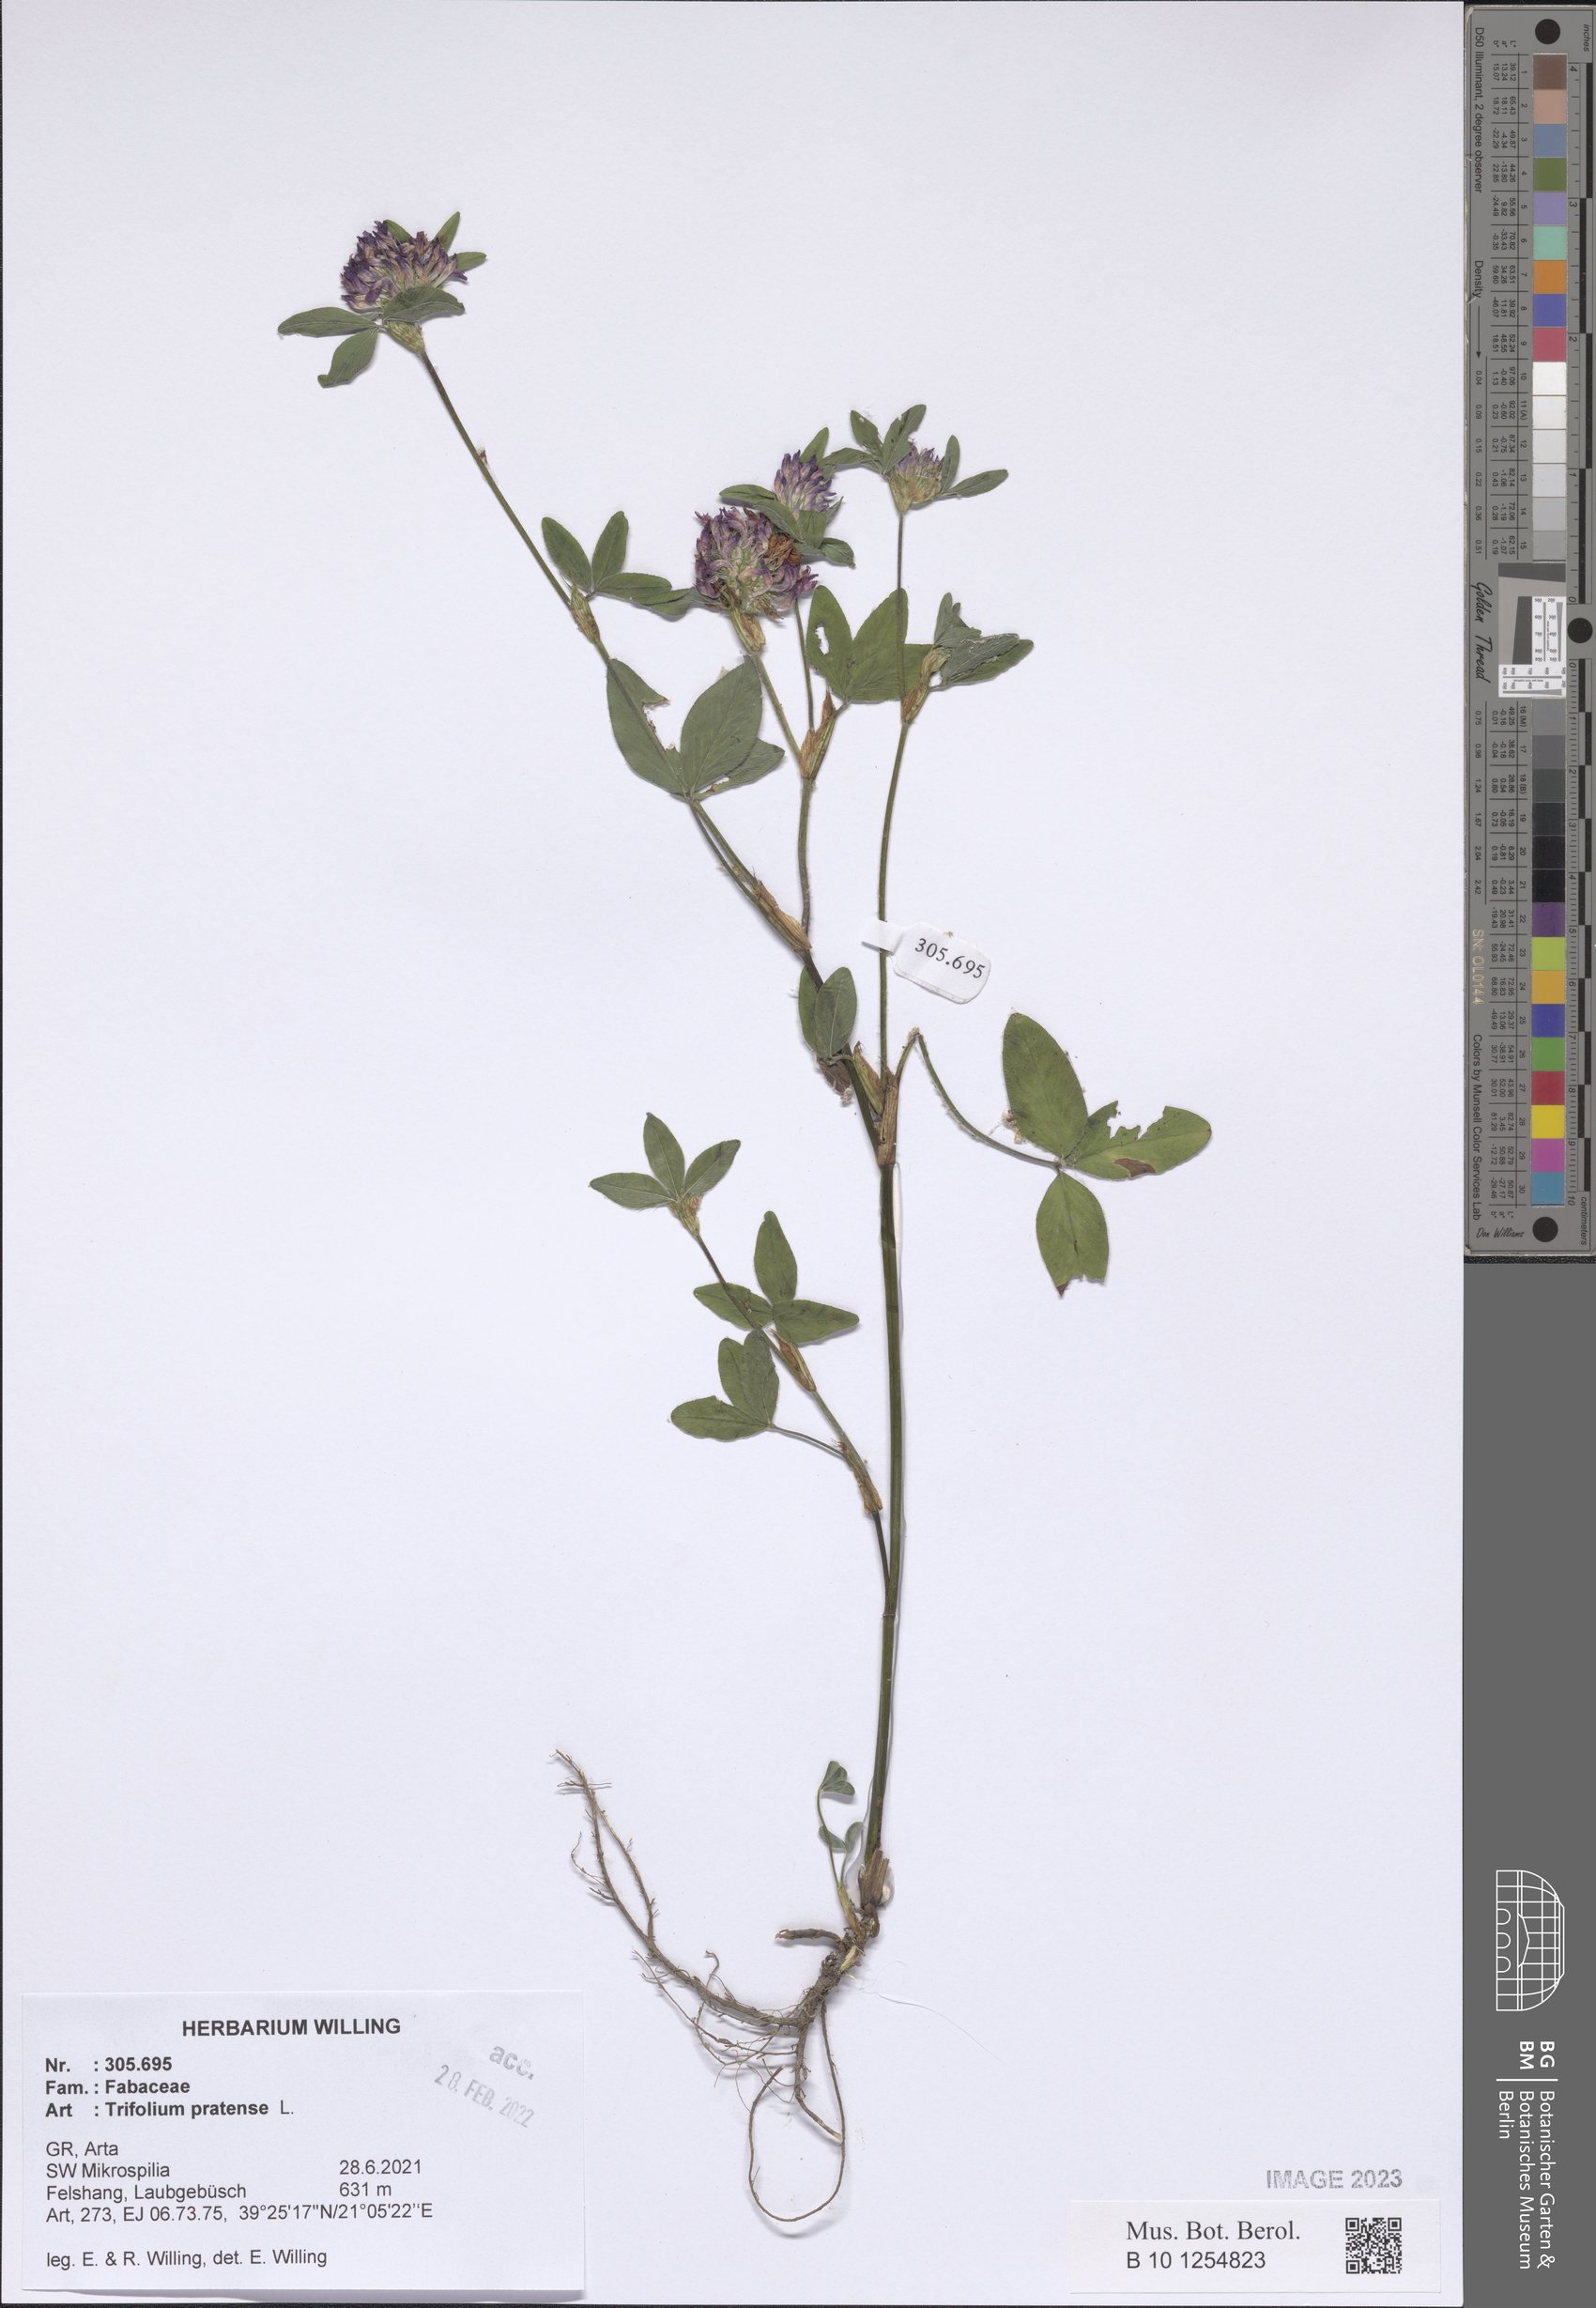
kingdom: Plantae
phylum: Tracheophyta
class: Magnoliopsida
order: Fabales
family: Fabaceae
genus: Trifolium
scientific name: Trifolium pratense
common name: Red clover
